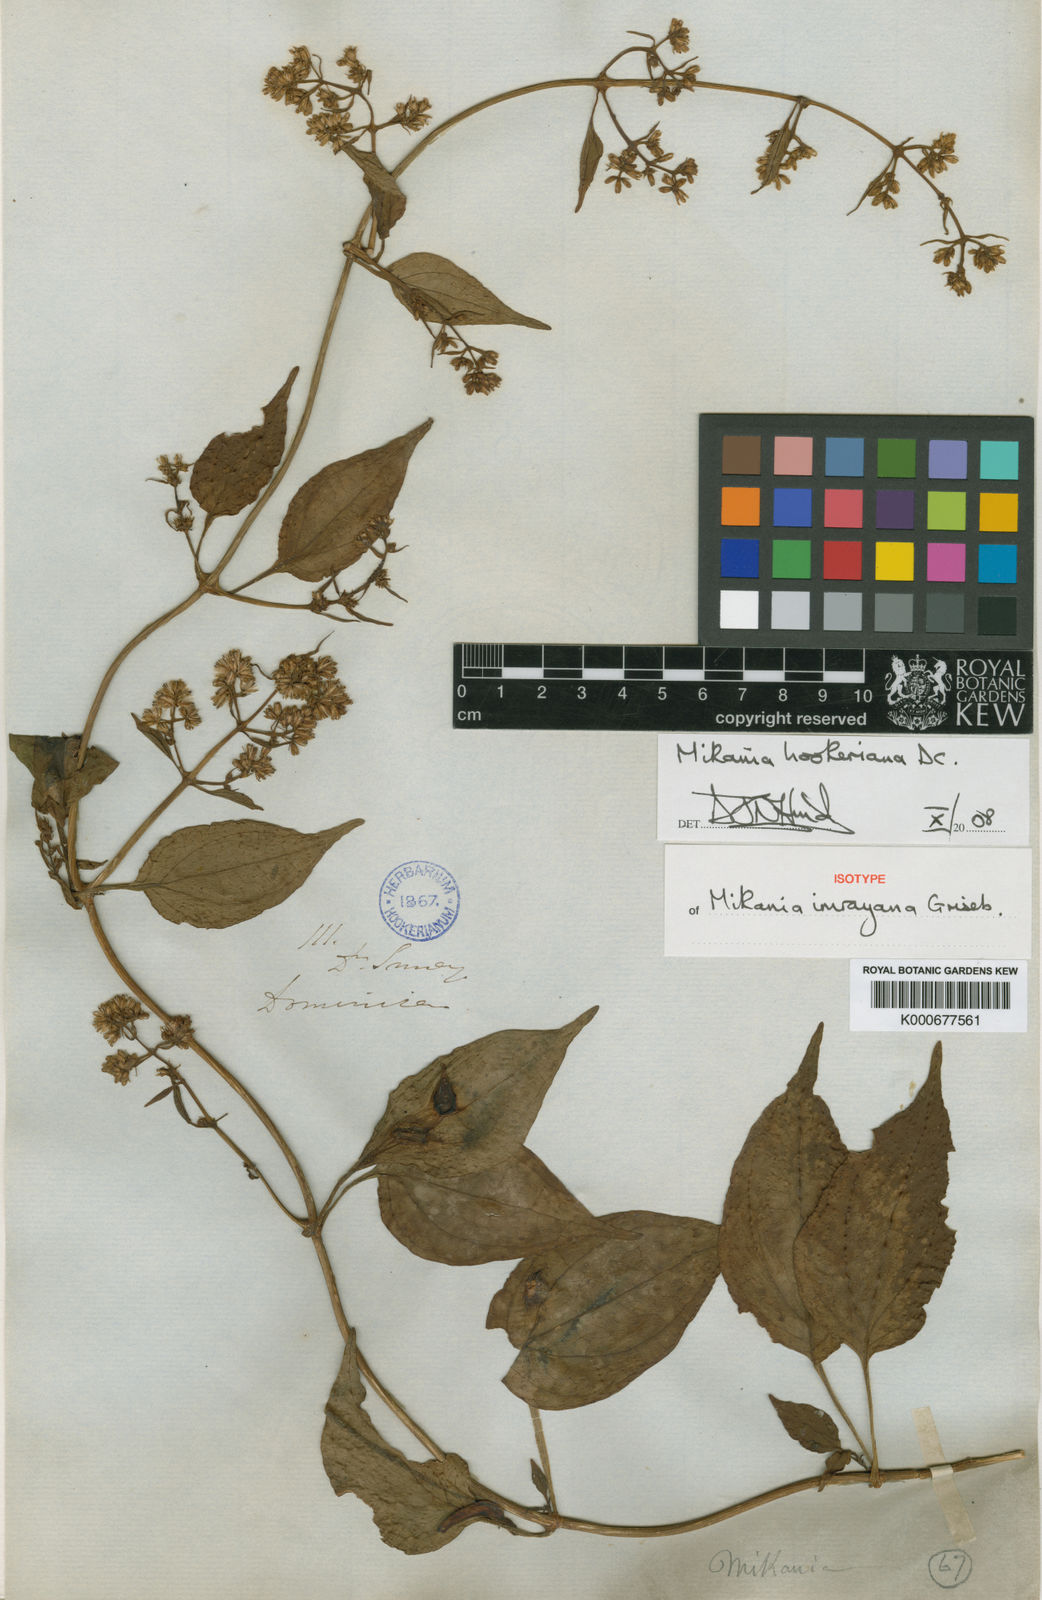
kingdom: Plantae
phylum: Tracheophyta
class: Magnoliopsida
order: Asterales
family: Asteraceae
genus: Mikania
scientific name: Mikania hookeriana
